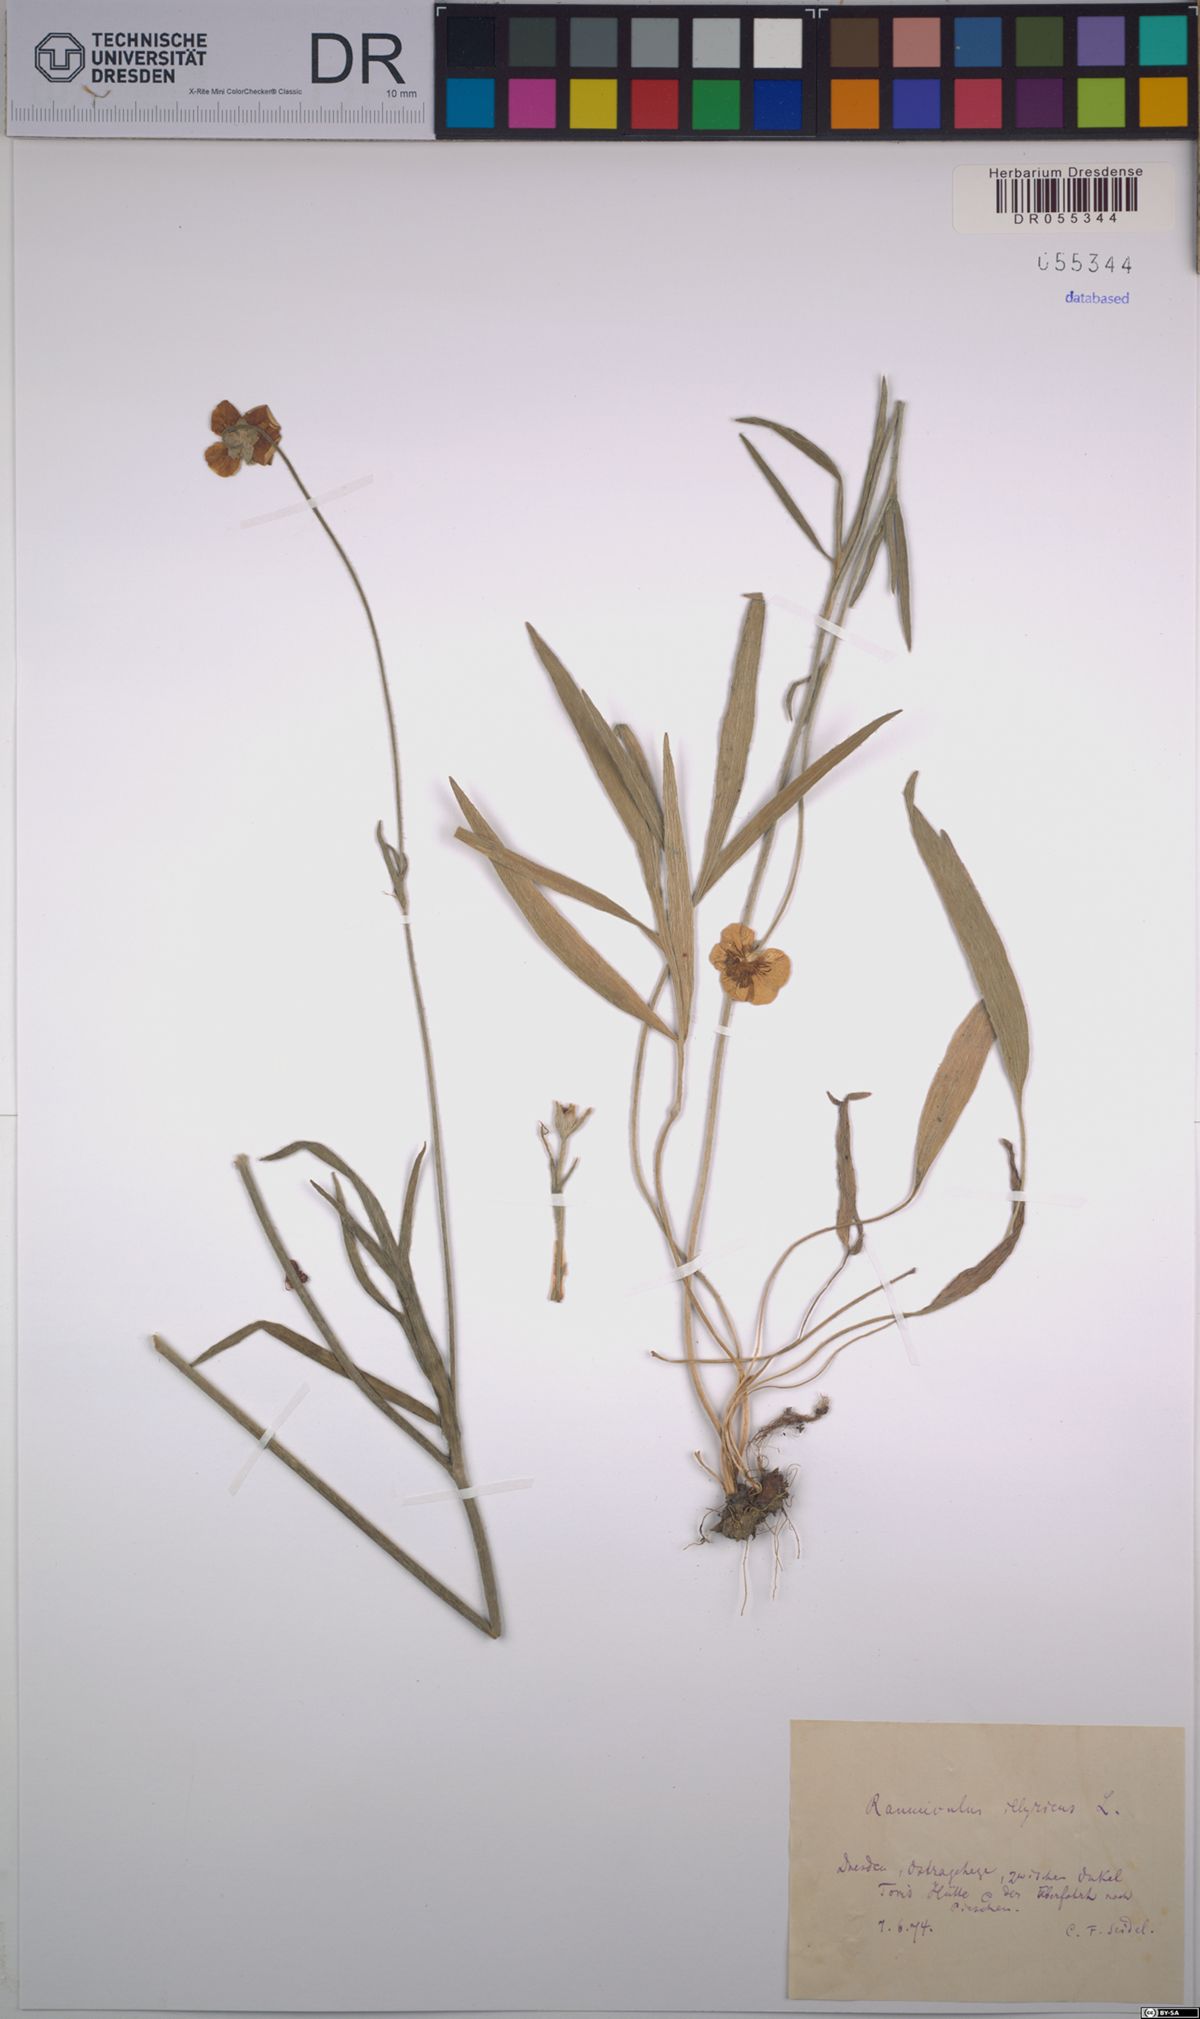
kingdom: Plantae
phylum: Tracheophyta
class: Magnoliopsida
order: Ranunculales
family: Ranunculaceae
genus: Ranunculus
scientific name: Ranunculus illyricus
